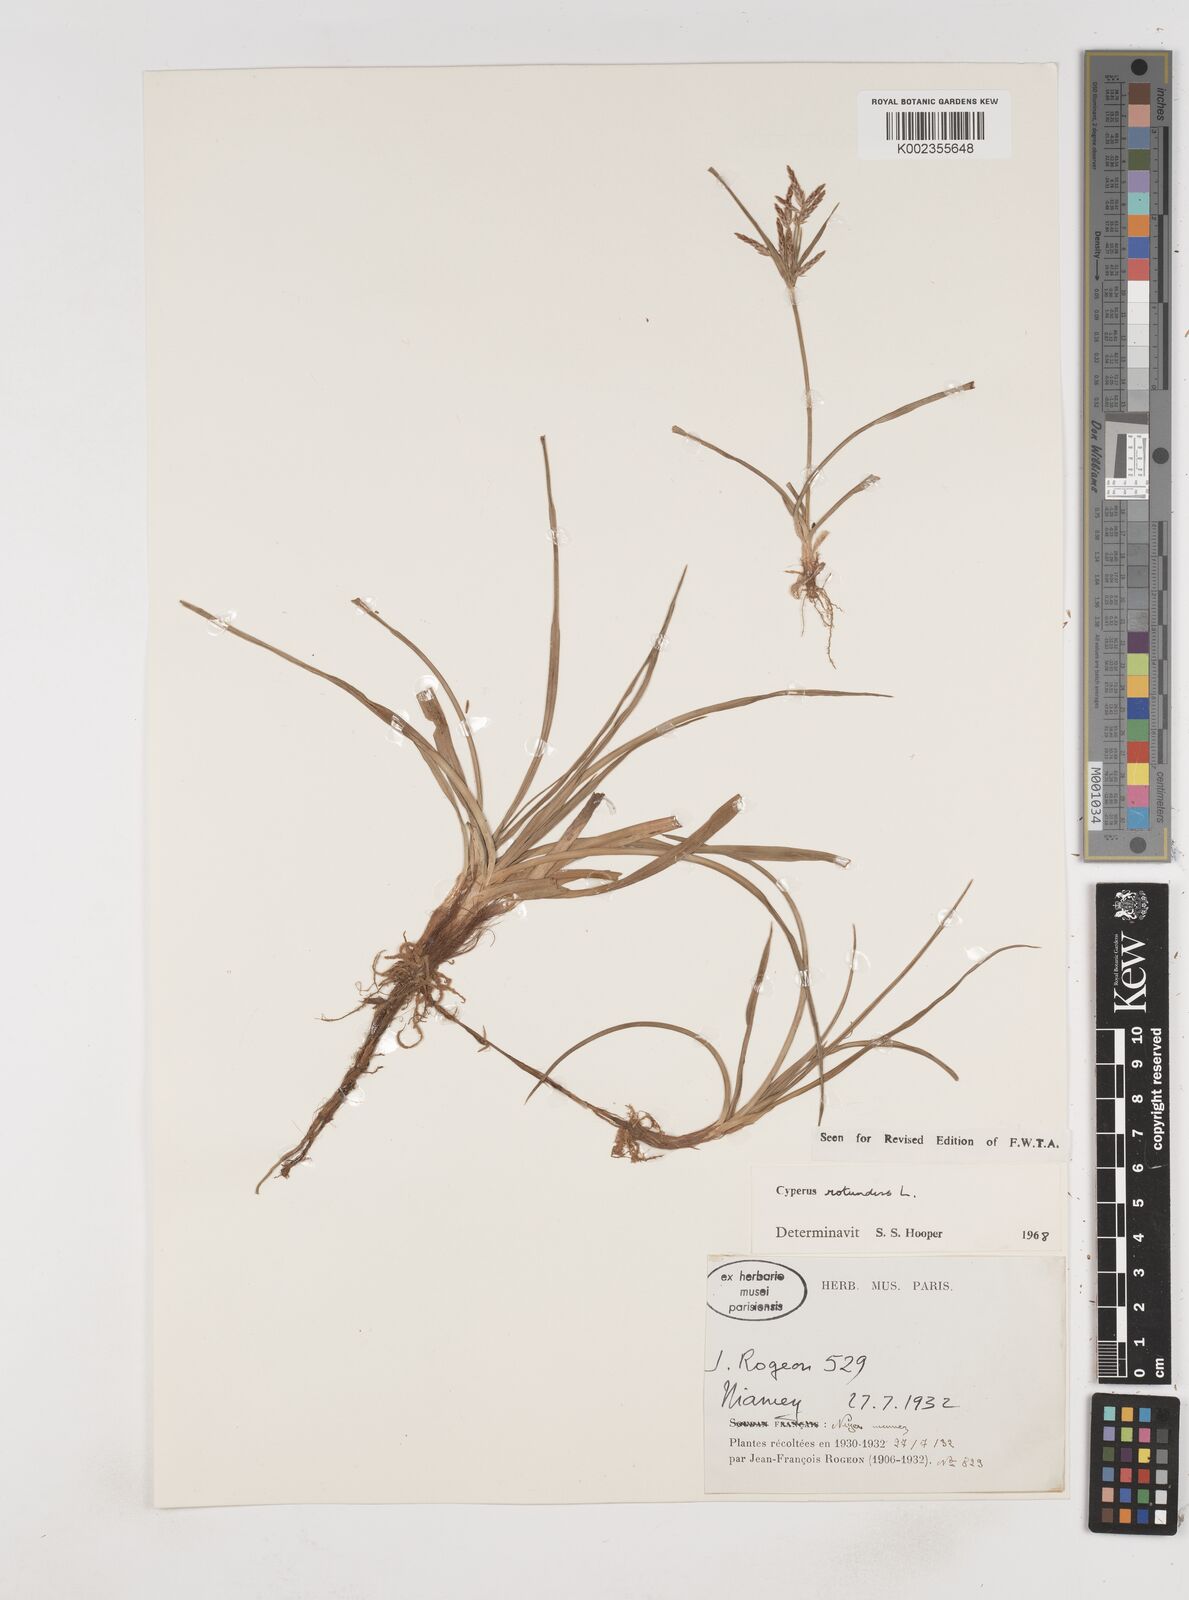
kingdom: Plantae
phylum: Tracheophyta
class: Liliopsida
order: Poales
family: Cyperaceae
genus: Cyperus
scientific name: Cyperus rotundus
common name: Nutgrass
